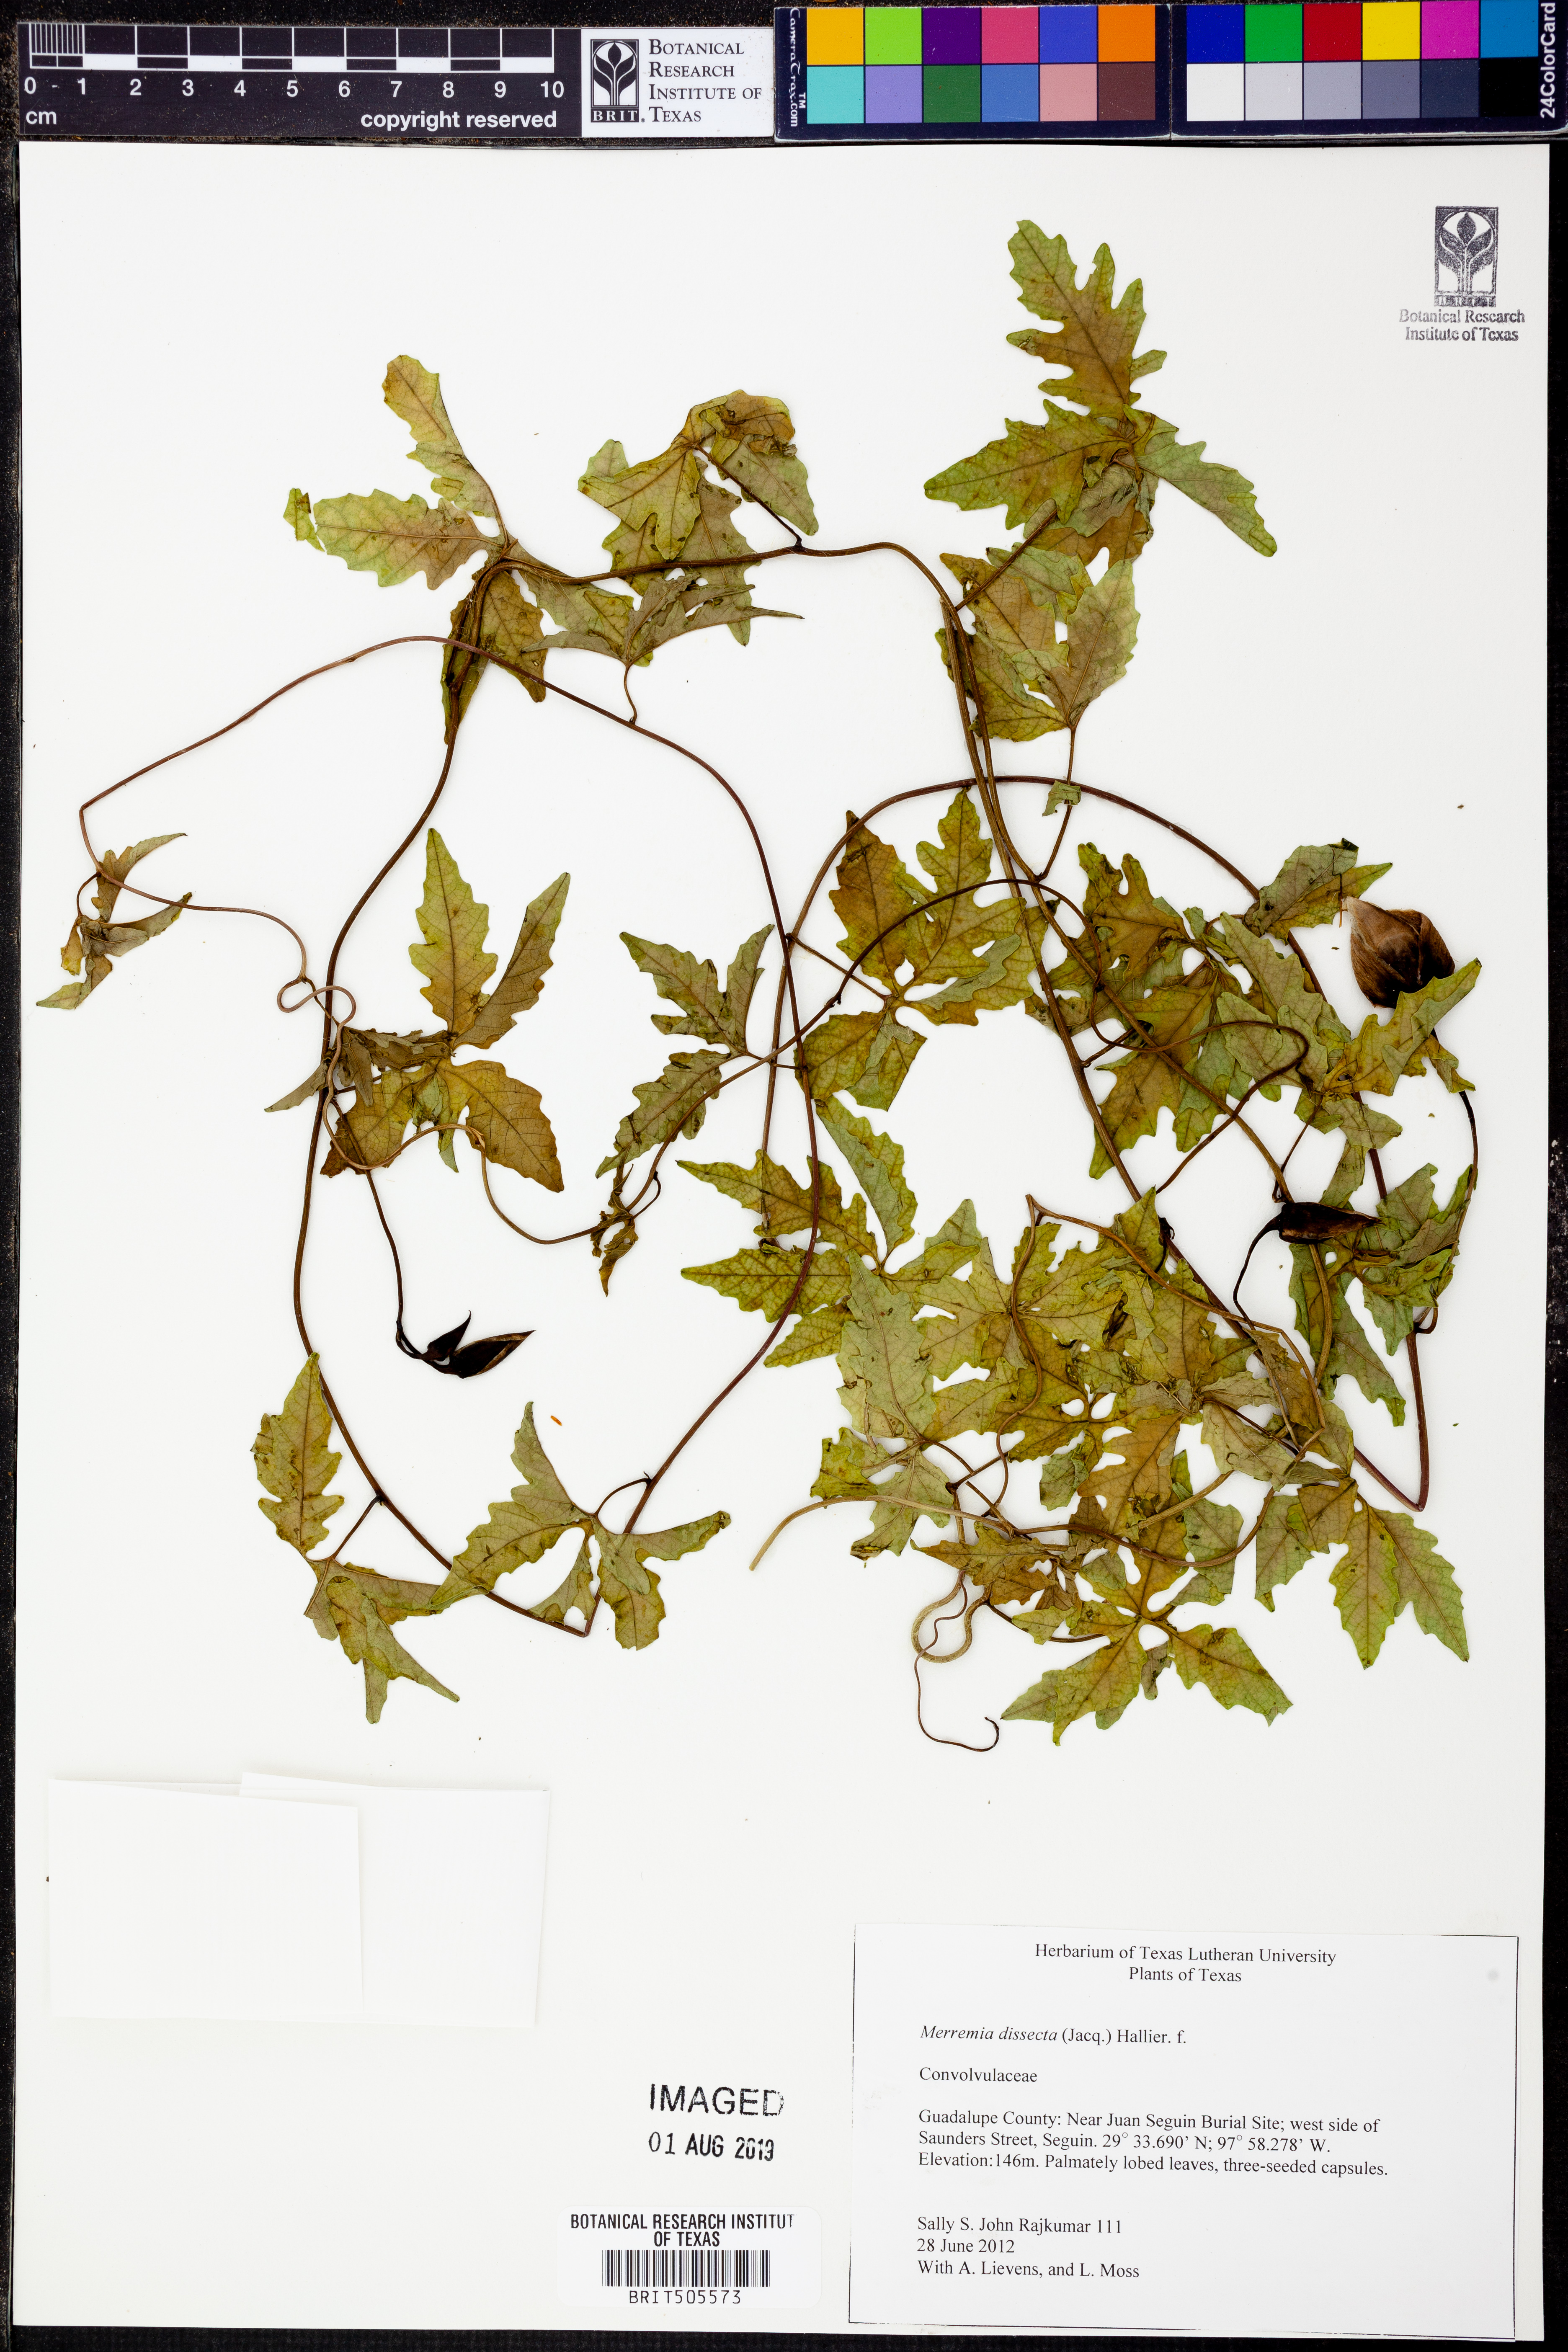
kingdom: Plantae
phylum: Tracheophyta
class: Magnoliopsida
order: Solanales
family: Convolvulaceae
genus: Distimake
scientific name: Distimake dissectus
